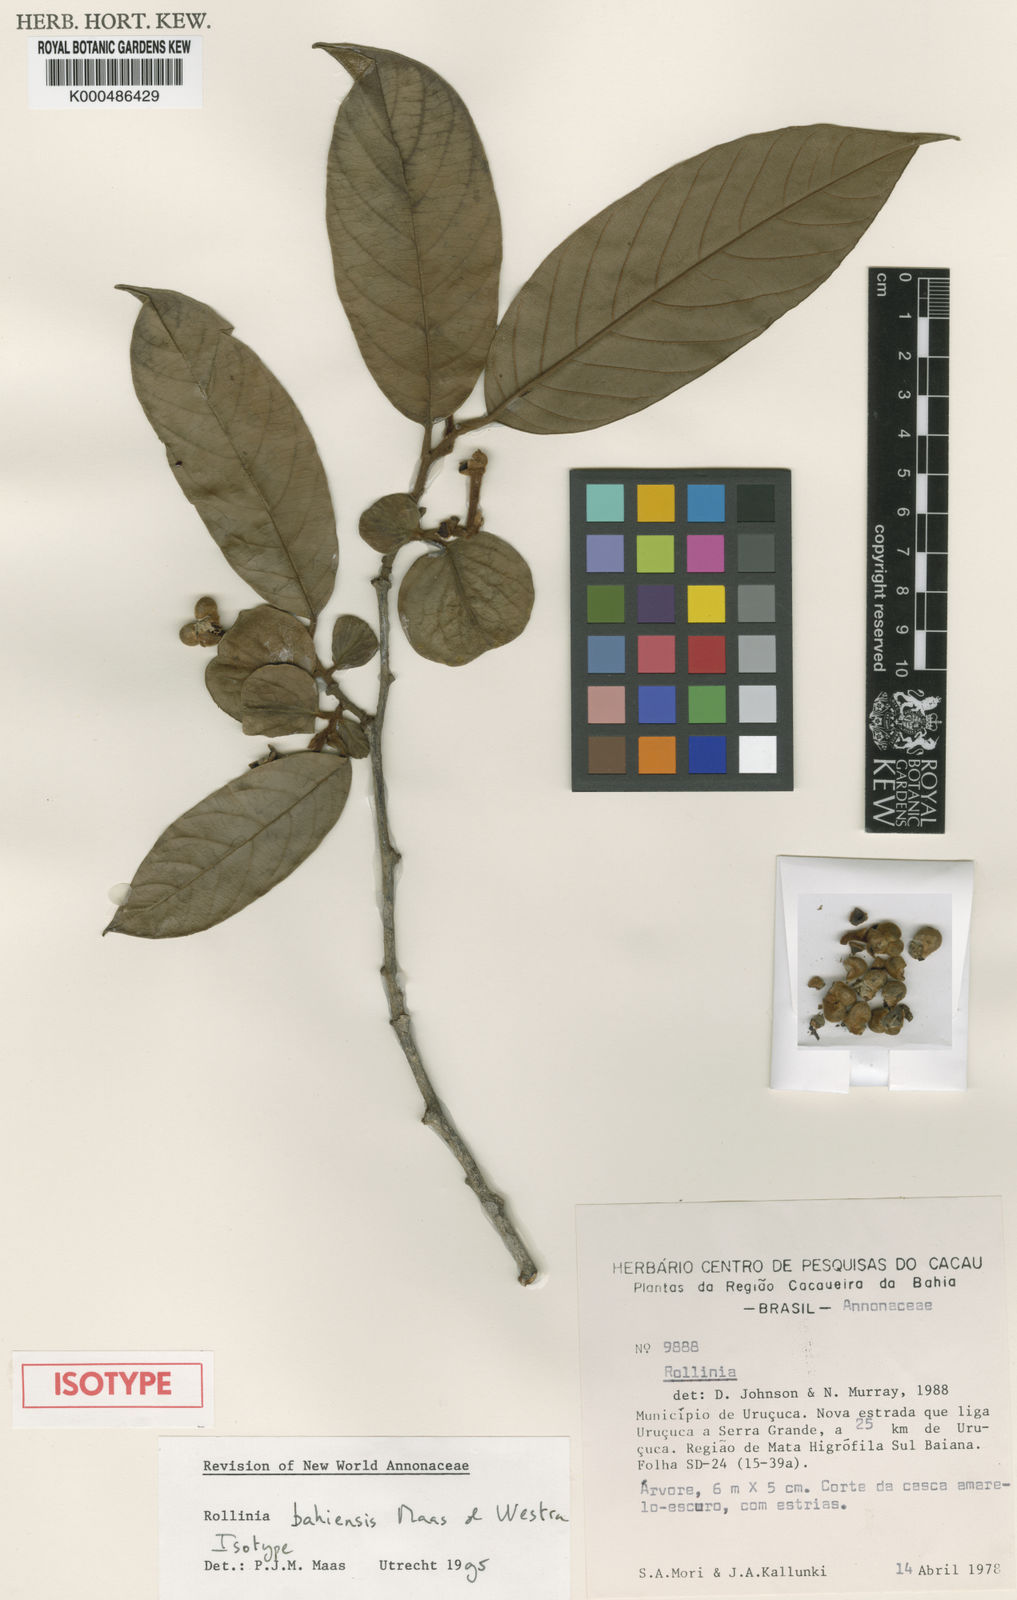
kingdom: Plantae
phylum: Tracheophyta
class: Magnoliopsida
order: Magnoliales
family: Annonaceae
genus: Annona
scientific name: Annona bahiensis
